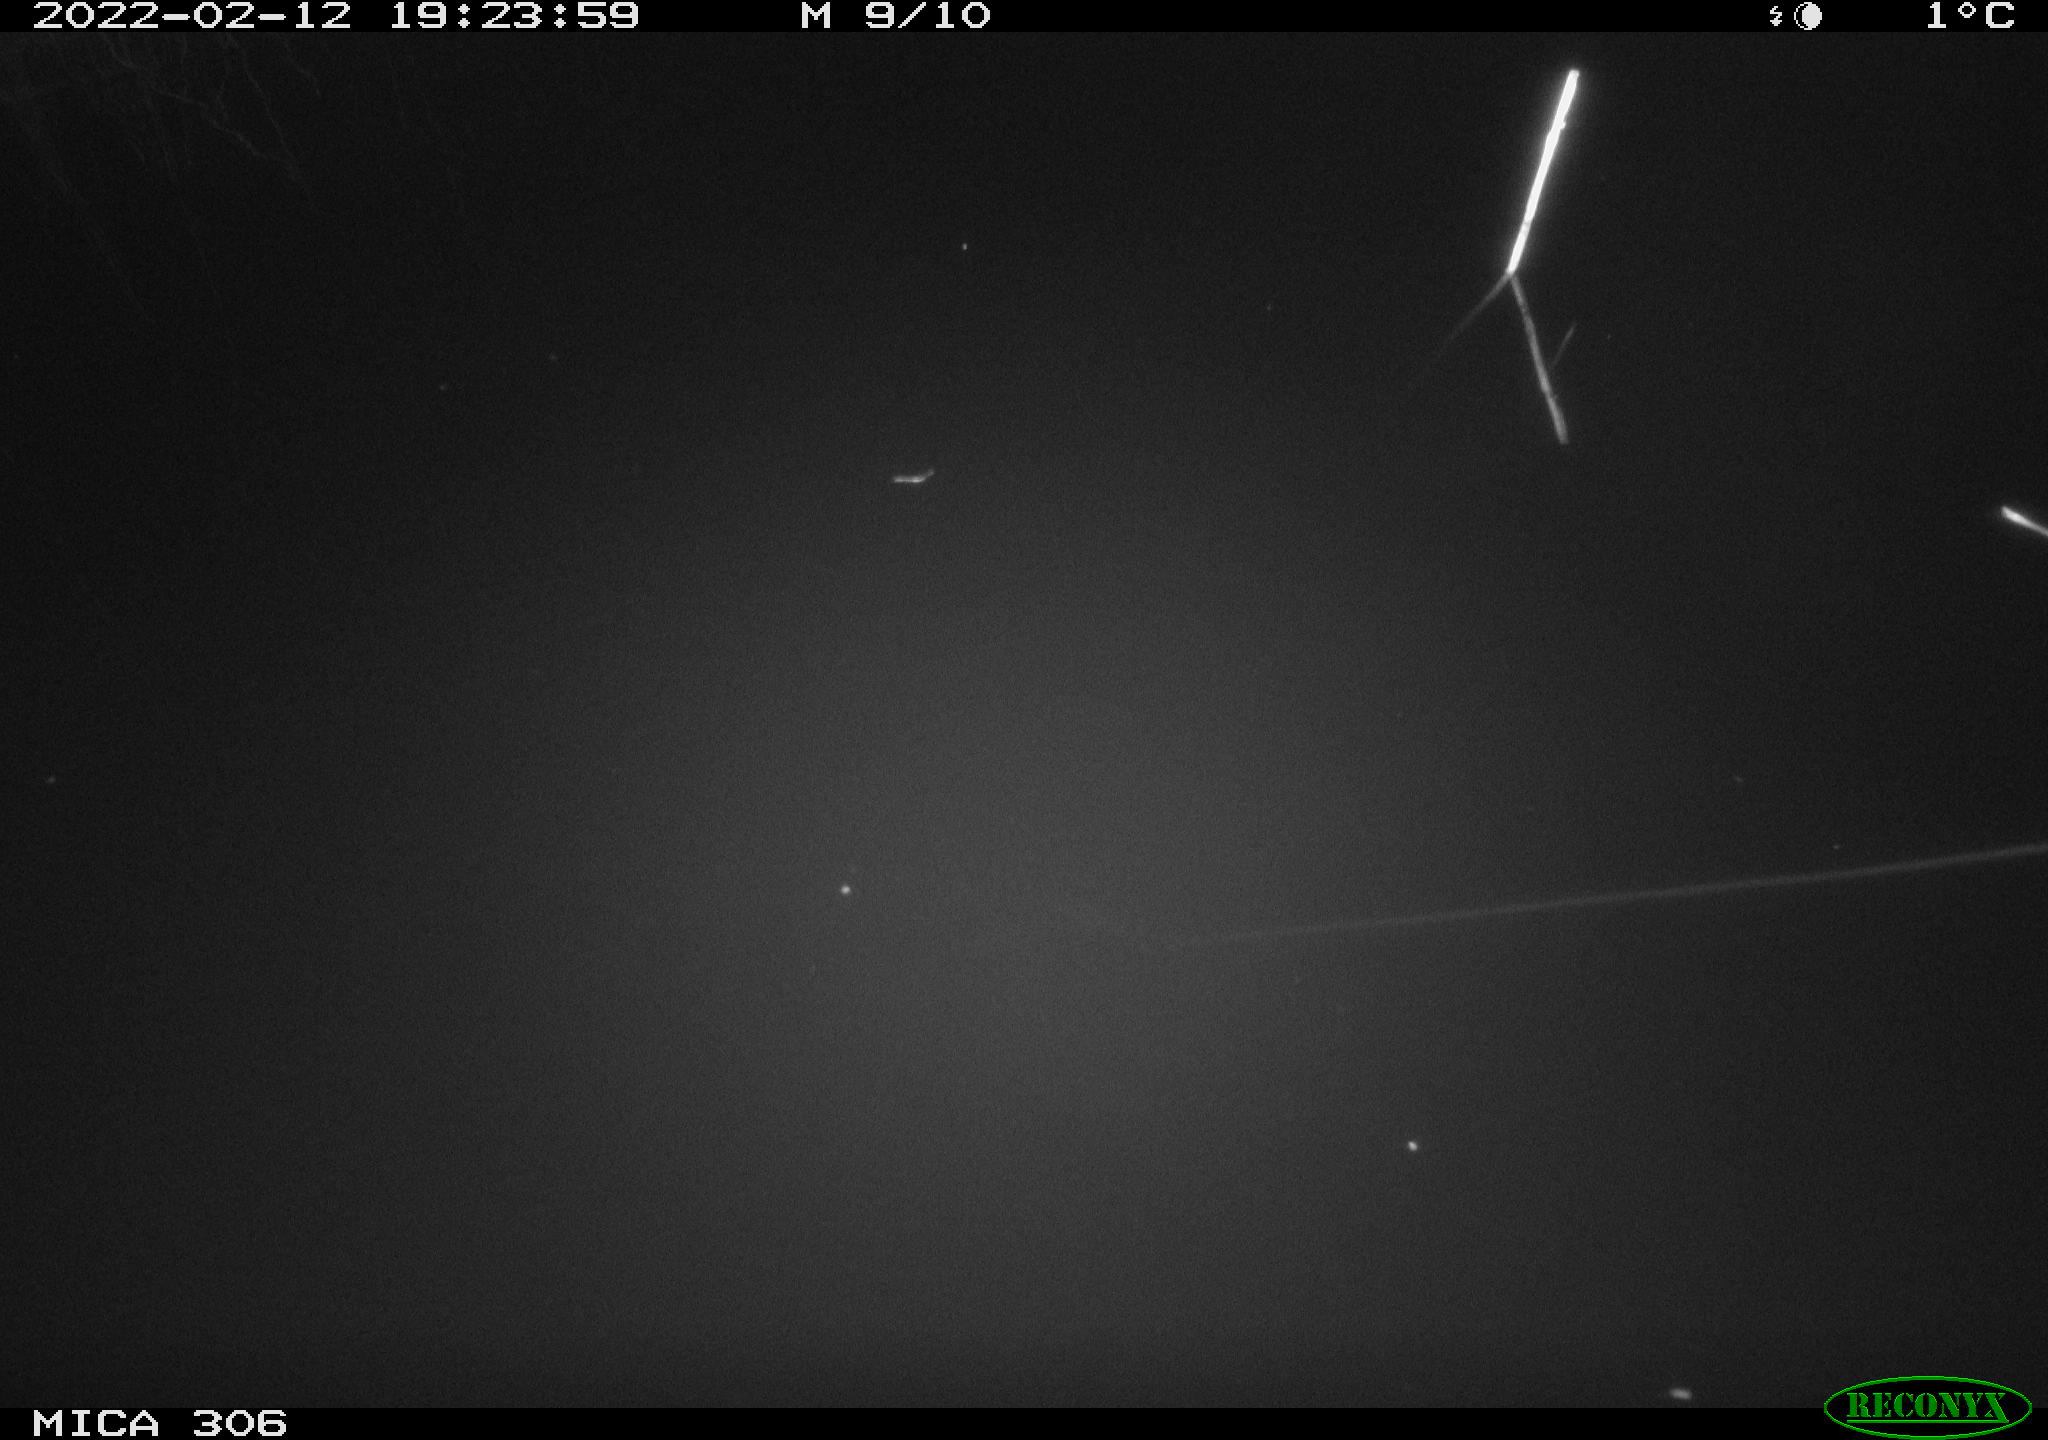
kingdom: Animalia
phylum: Chordata
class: Aves
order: Gruiformes
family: Rallidae
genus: Gallinula
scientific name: Gallinula chloropus
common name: Common moorhen
